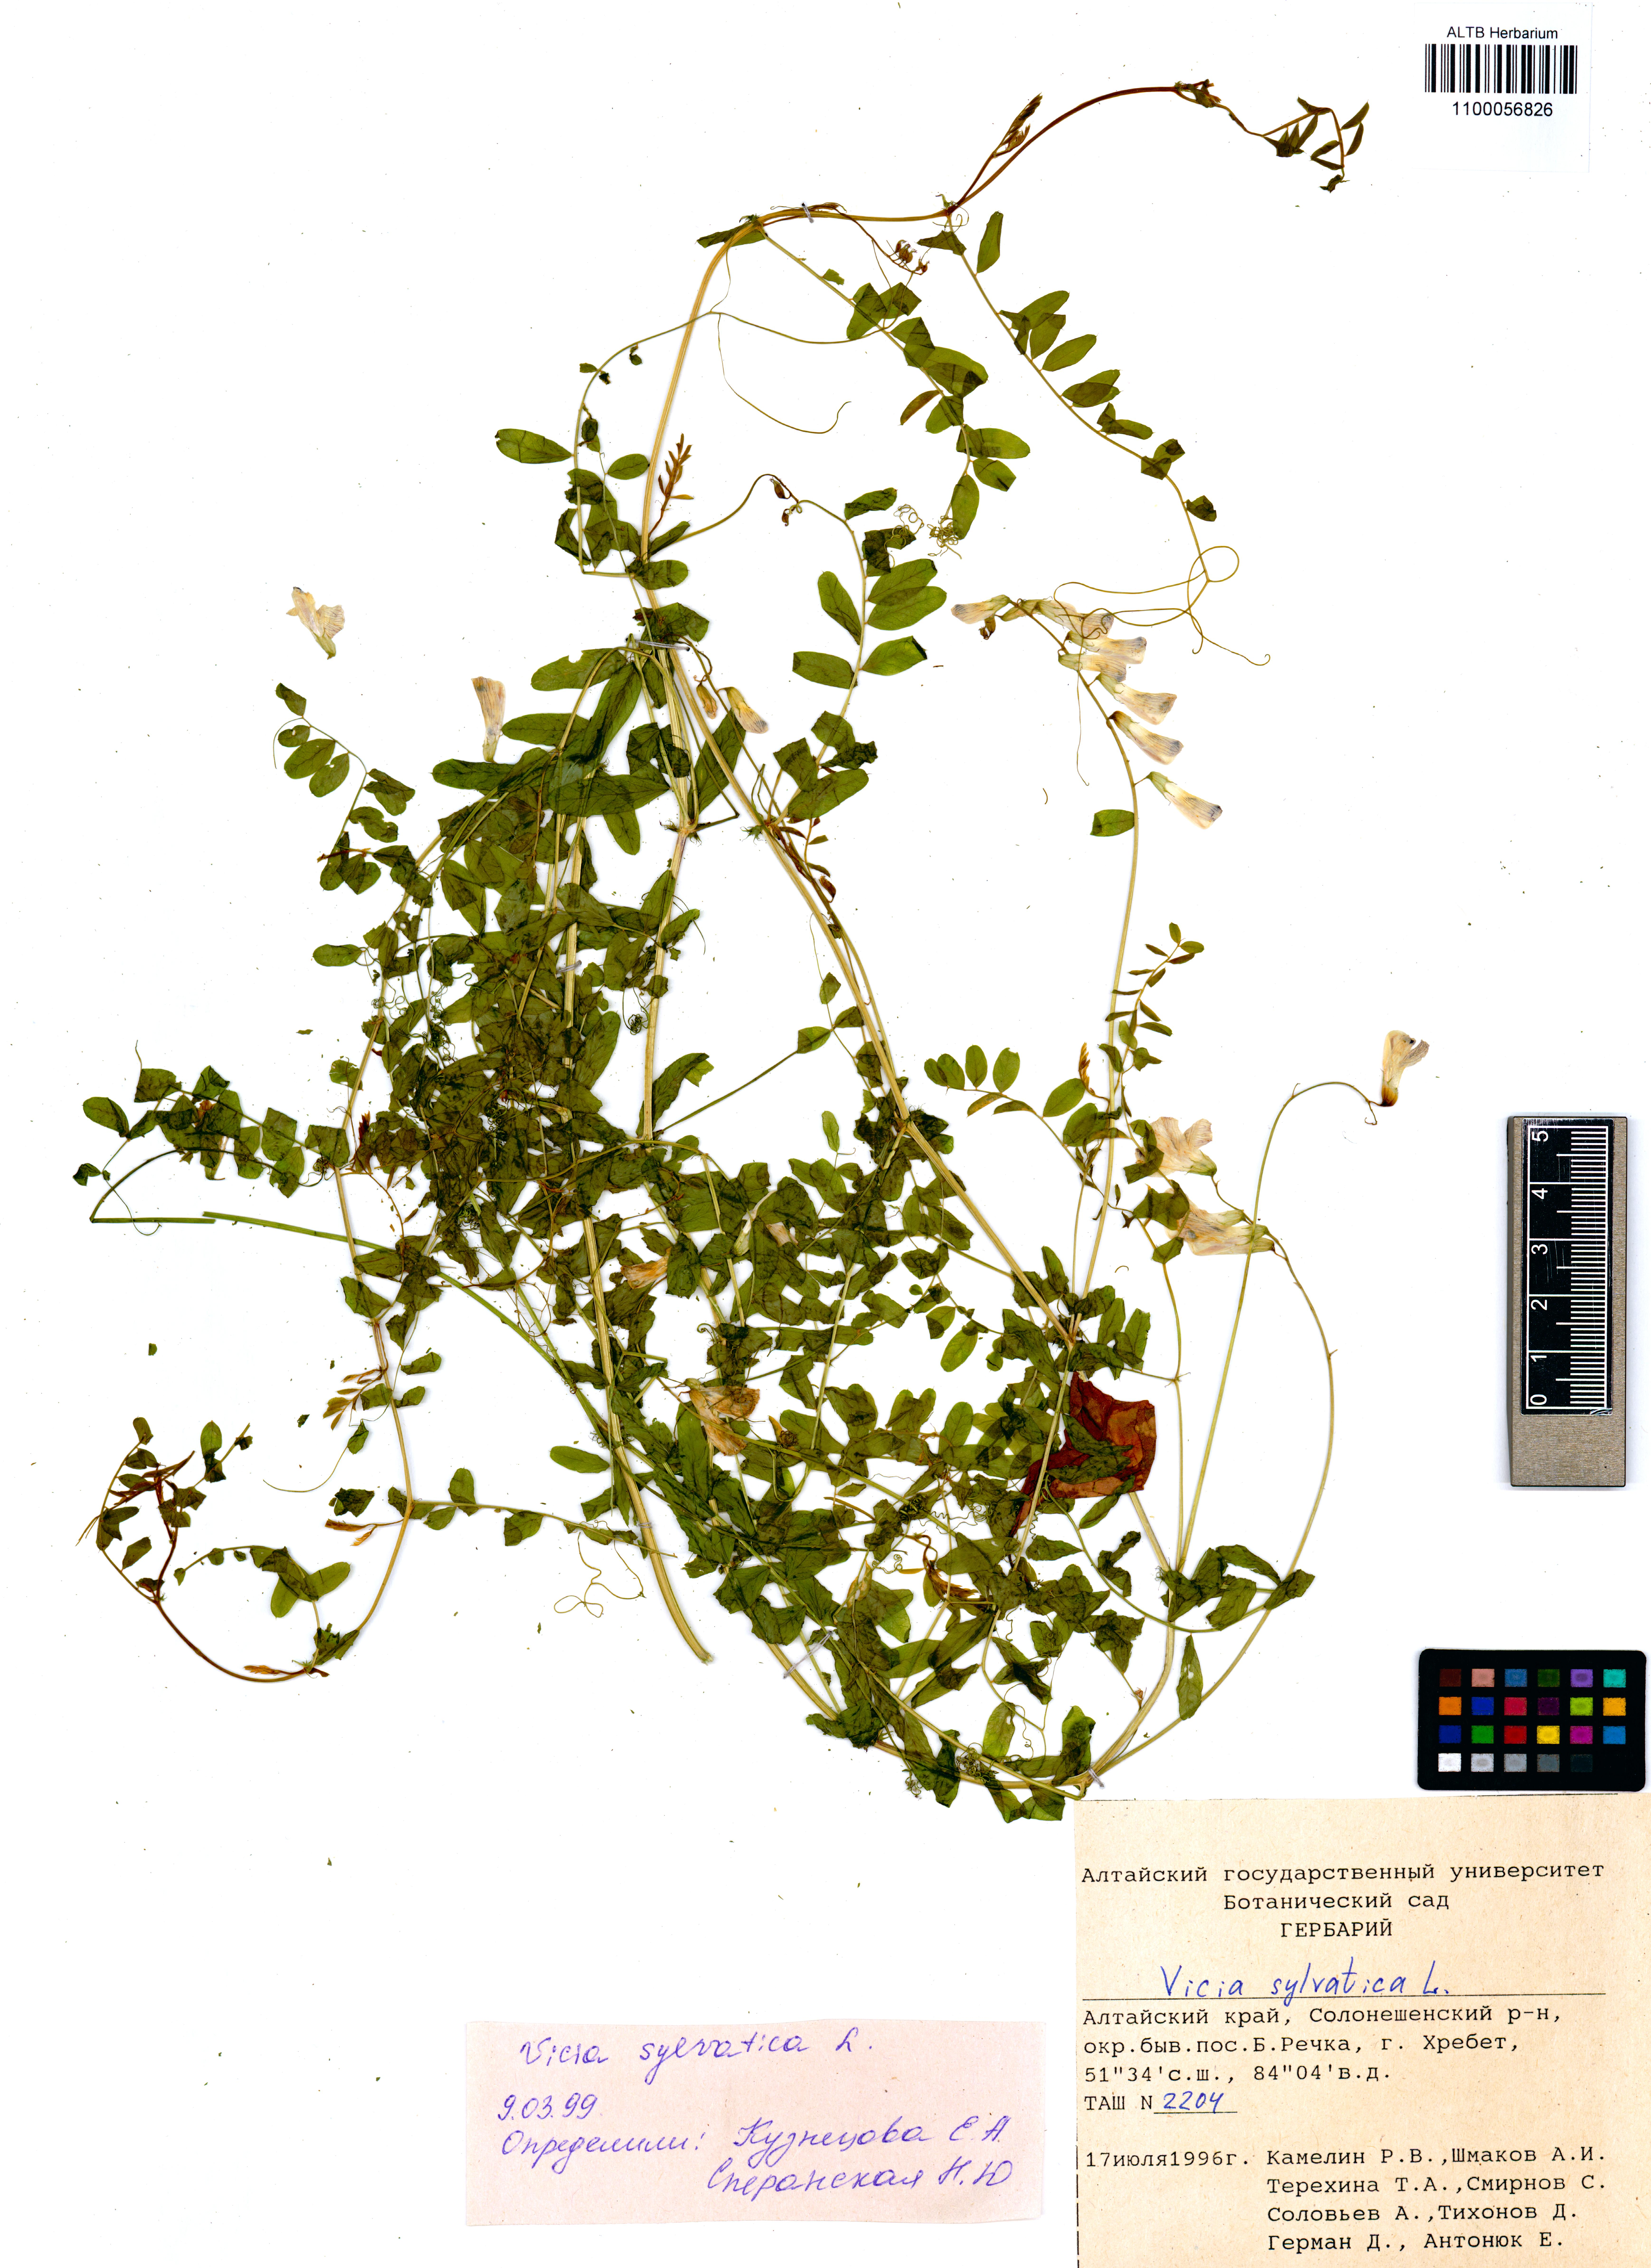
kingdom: Plantae
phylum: Tracheophyta
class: Magnoliopsida
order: Fabales
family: Fabaceae
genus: Vicia
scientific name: Vicia sylvatica
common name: Wood vetch
